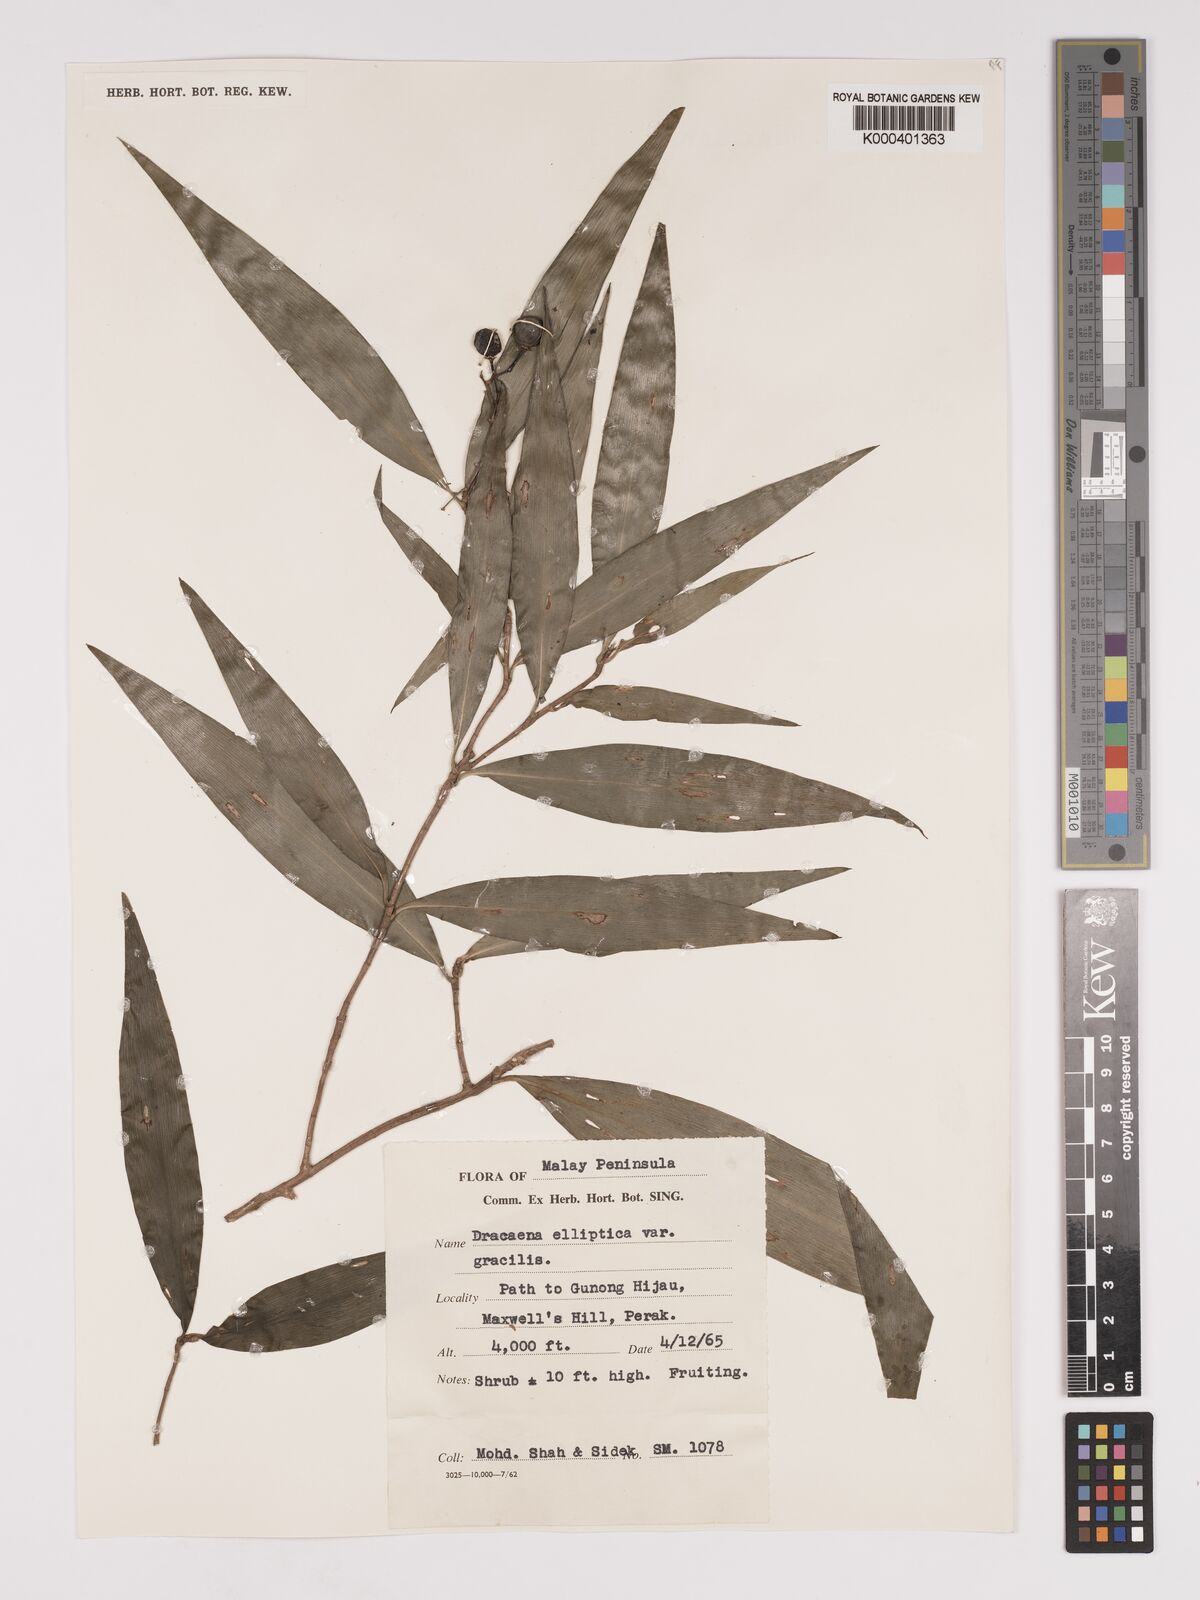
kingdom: Plantae
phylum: Tracheophyta
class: Liliopsida
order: Asparagales
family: Asparagaceae
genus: Dracaena
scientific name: Dracaena elliptica
